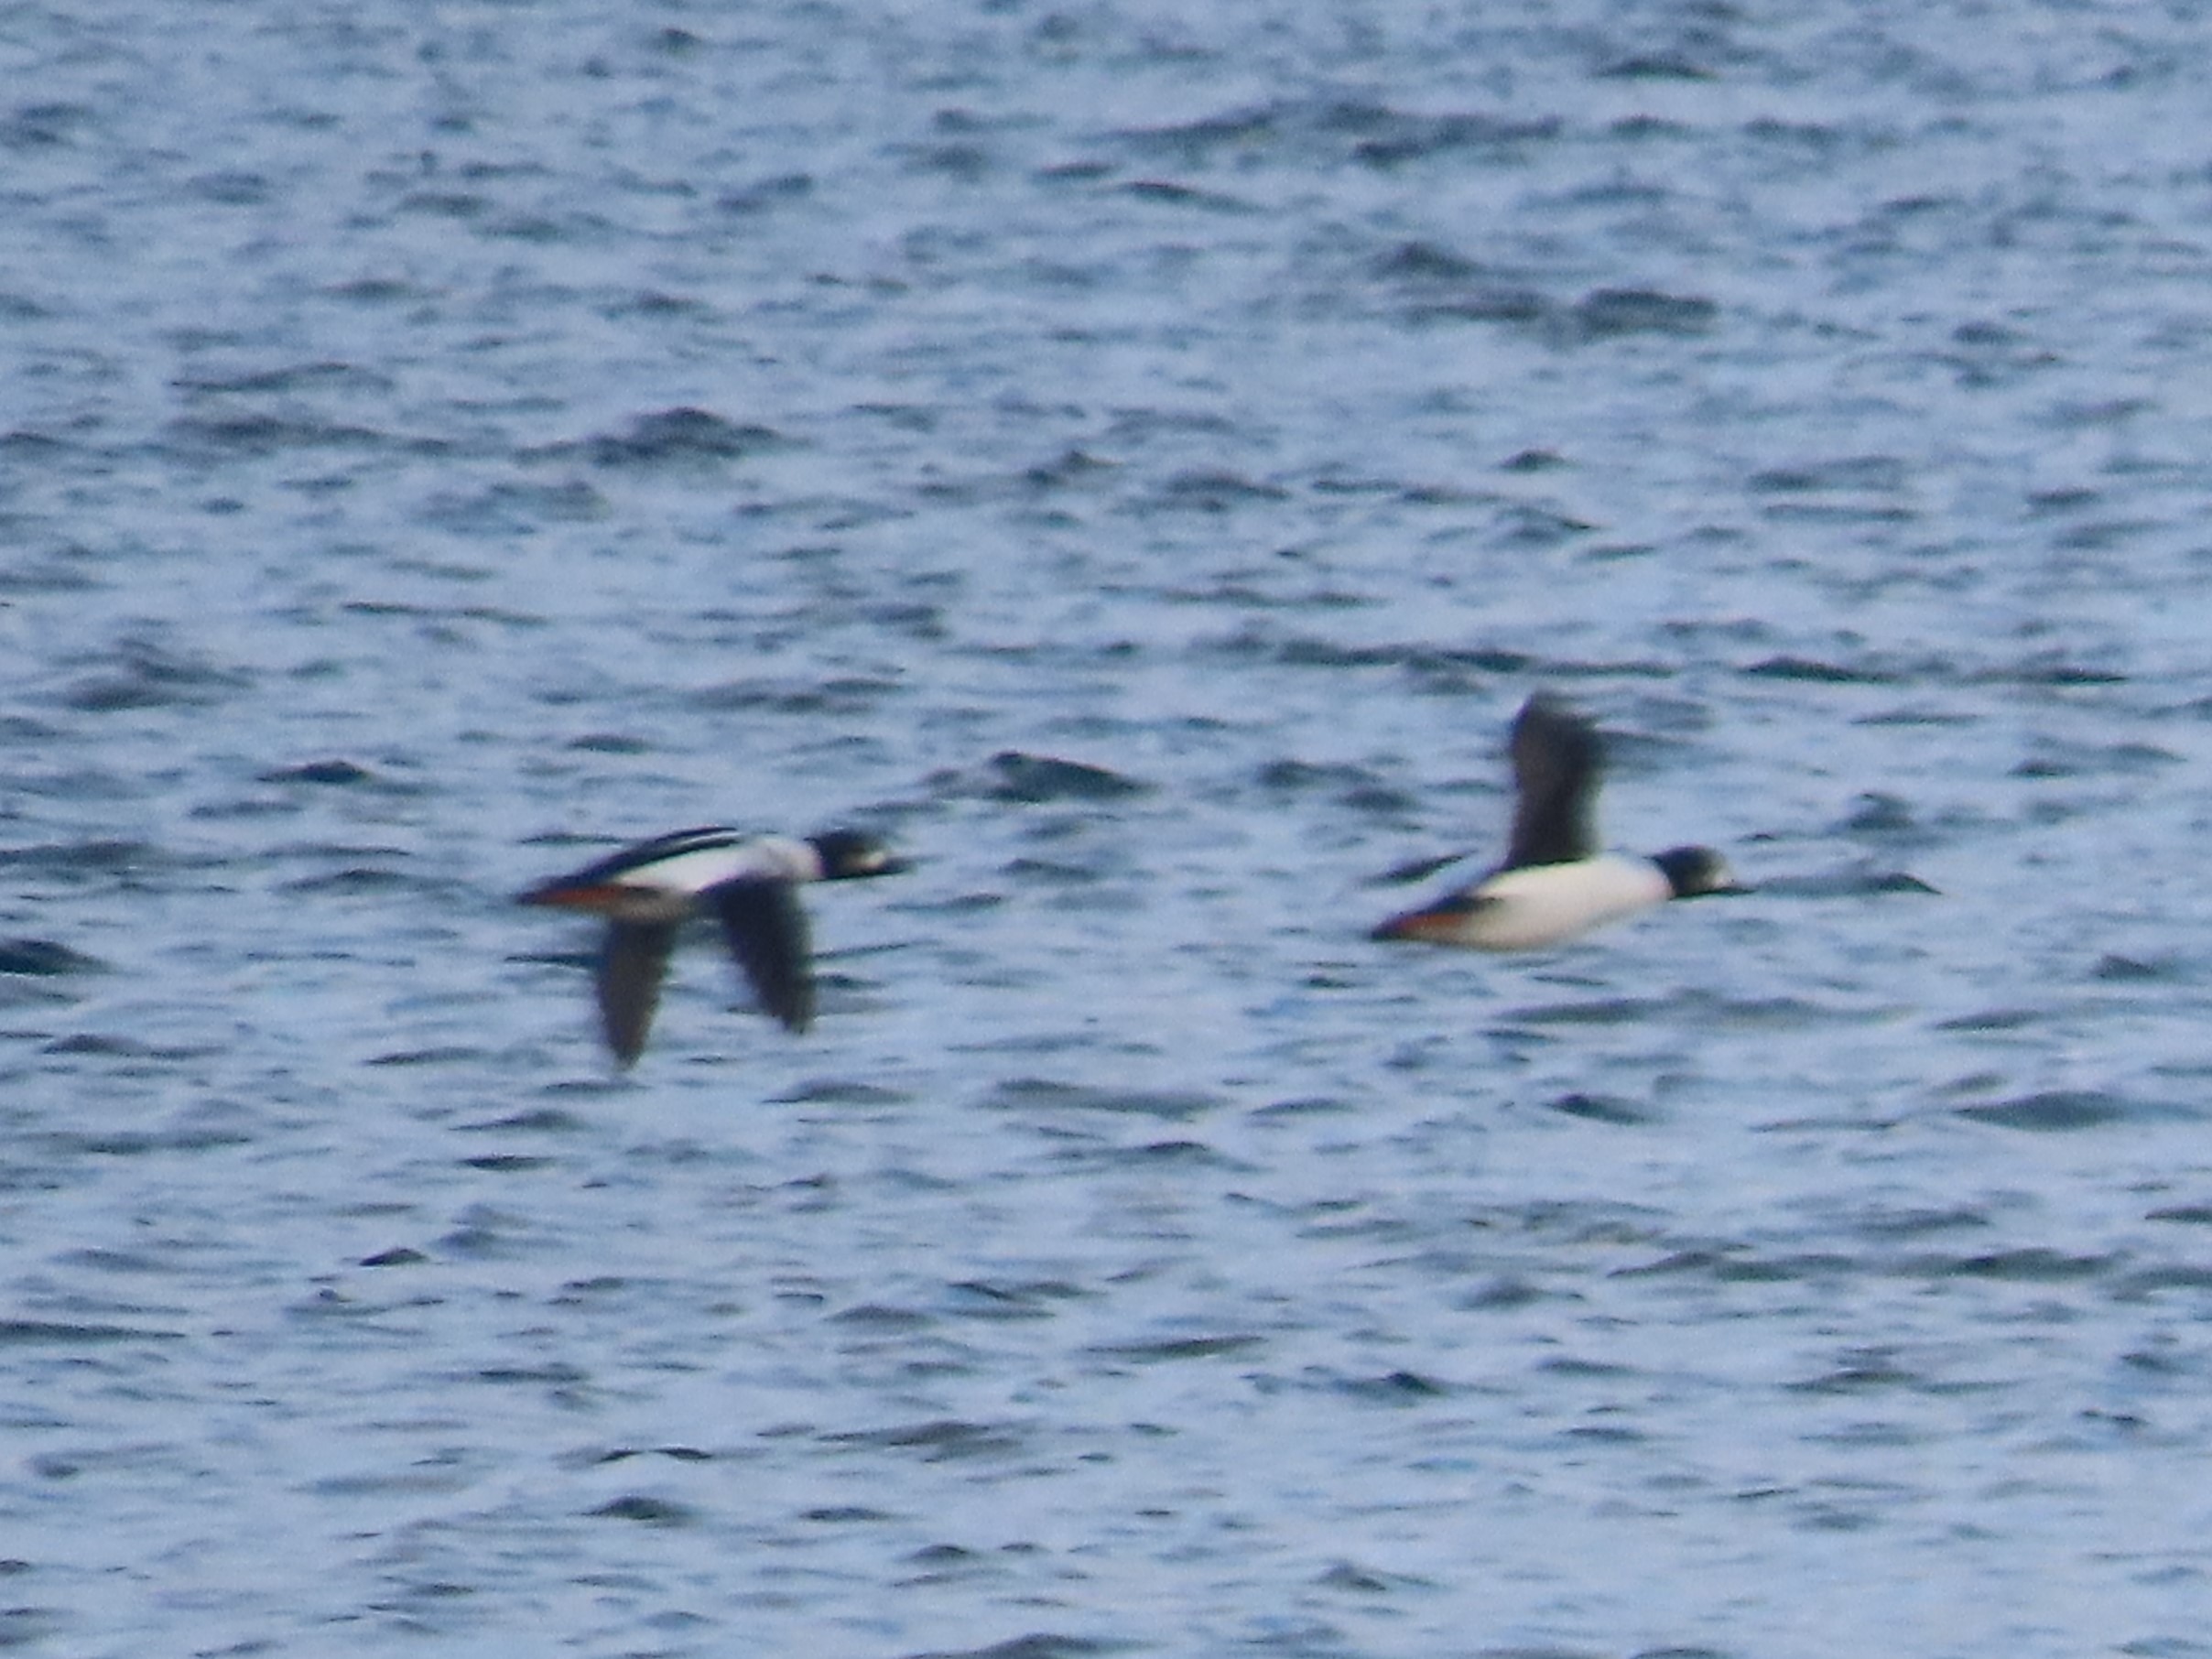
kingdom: Animalia
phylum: Chordata
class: Aves
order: Anseriformes
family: Anatidae
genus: Bucephala
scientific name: Bucephala clangula
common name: Hvinand
